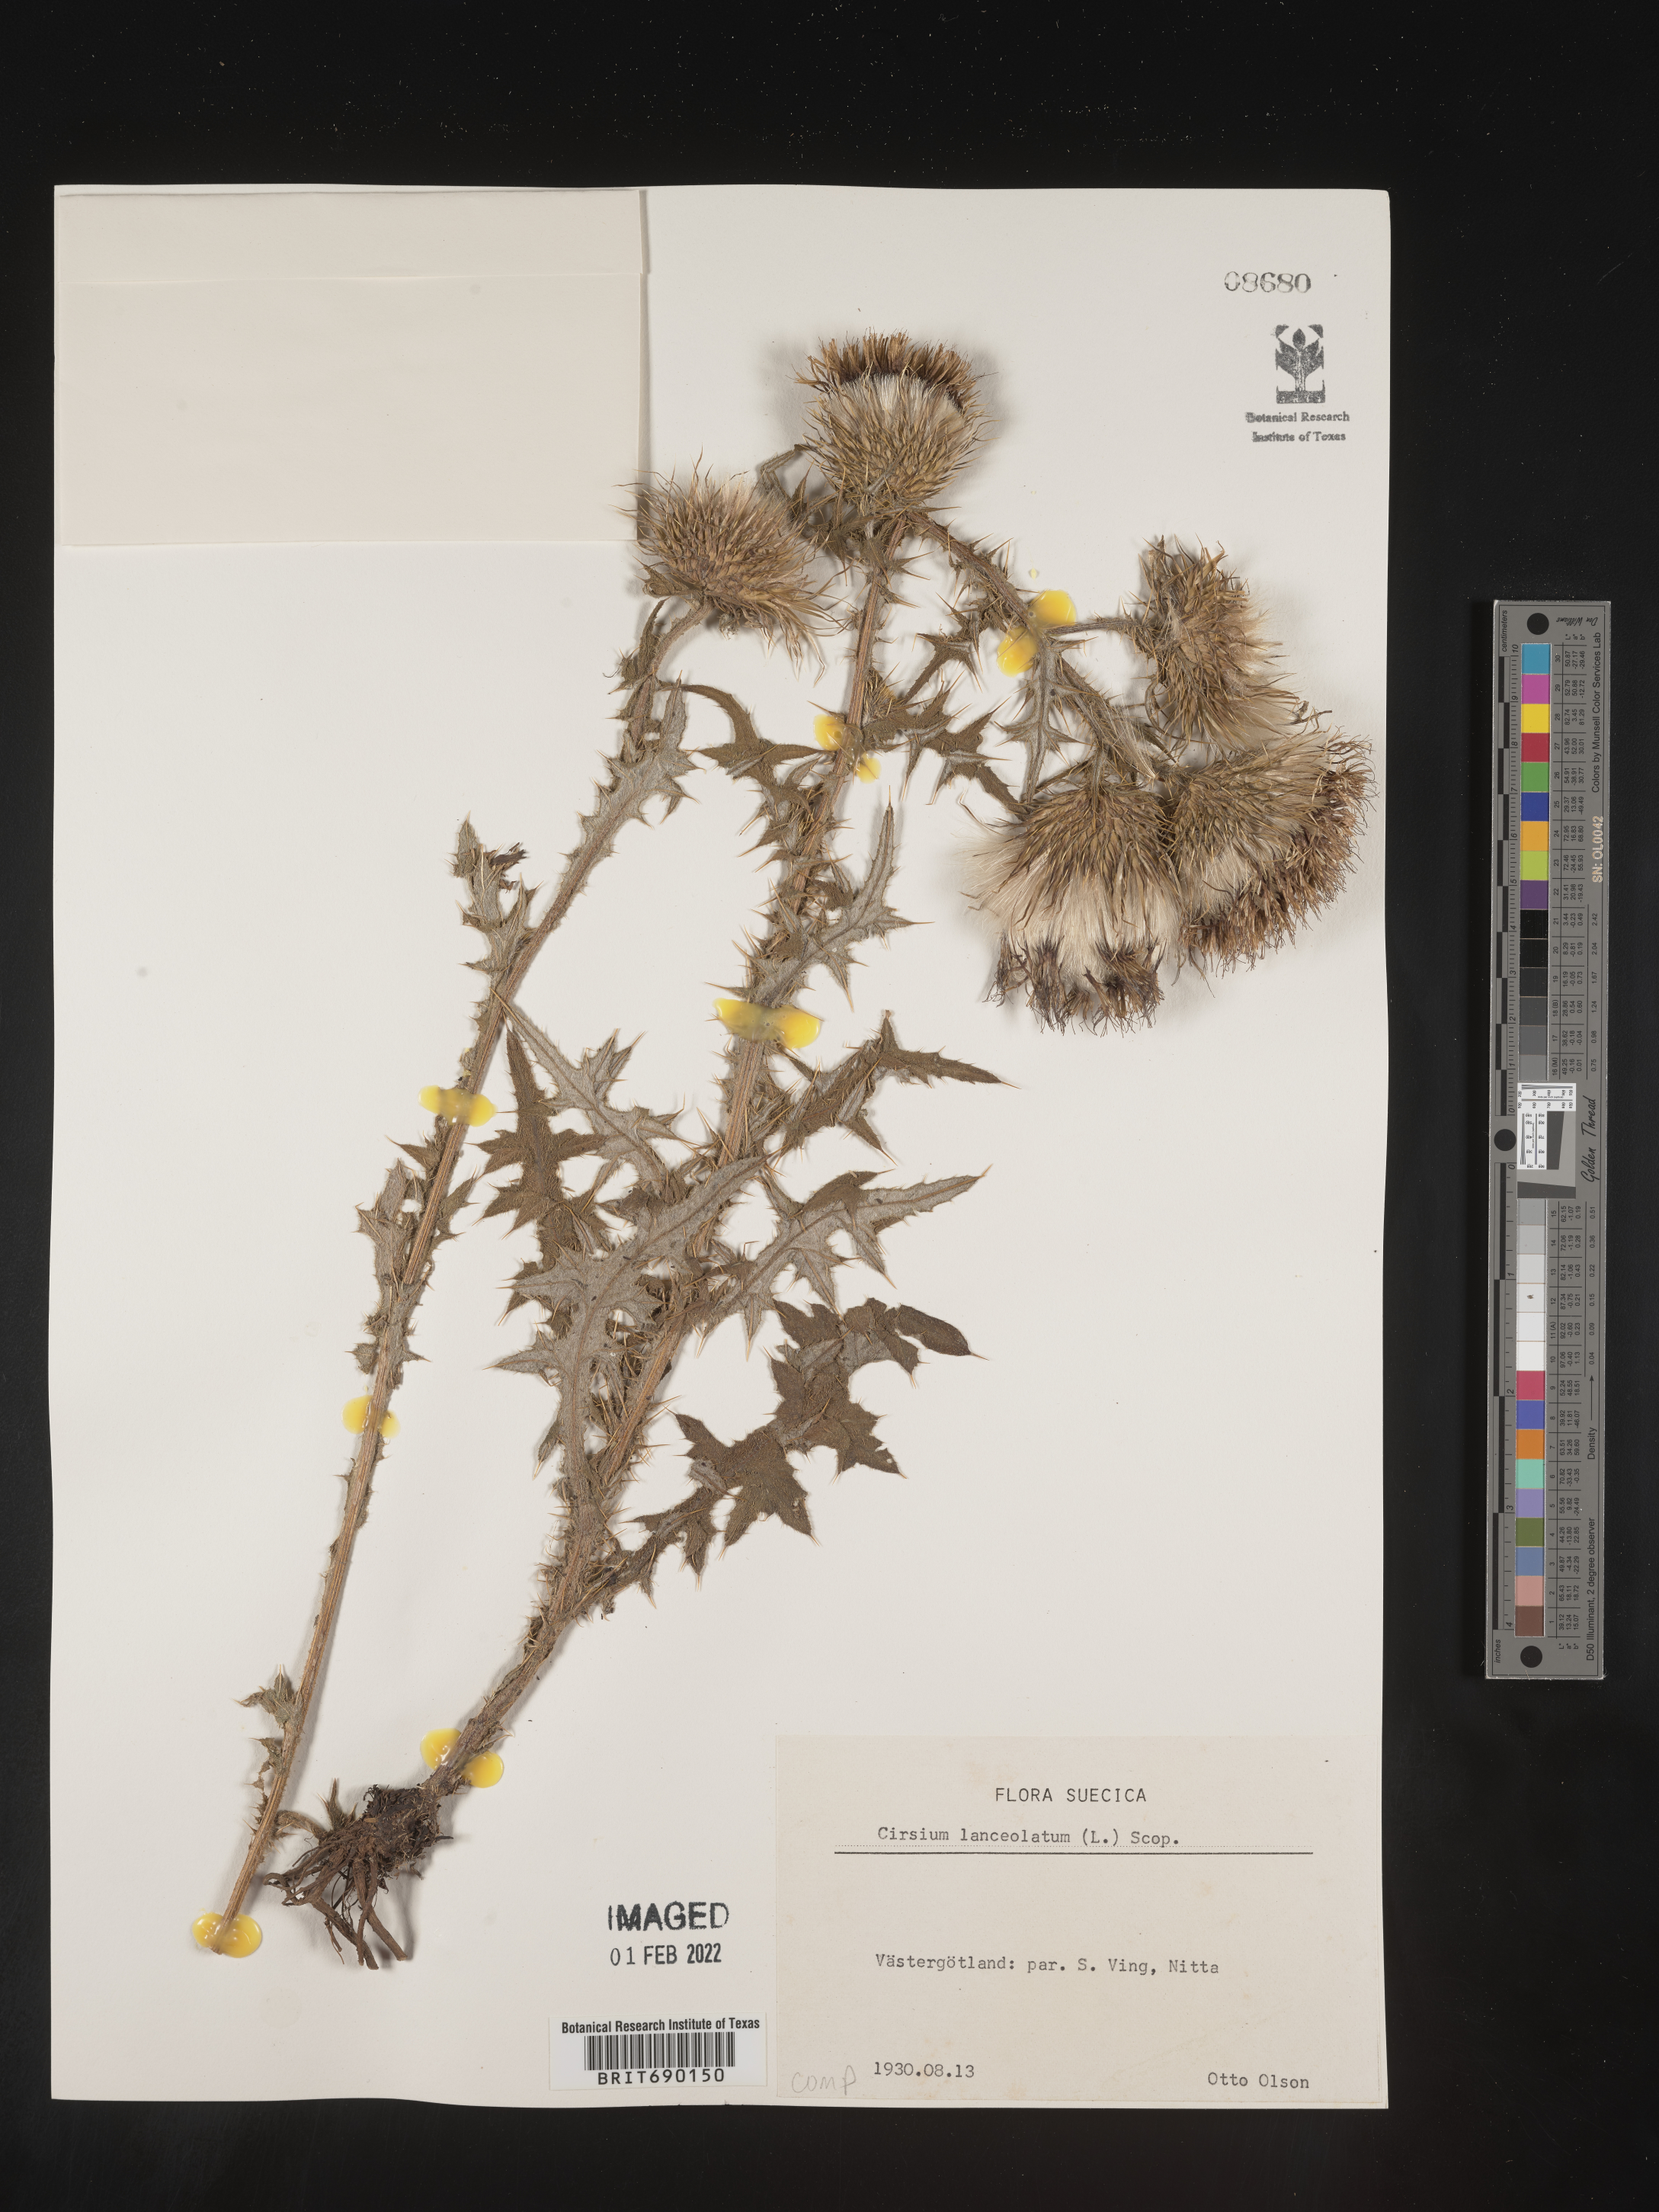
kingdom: Plantae
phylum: Tracheophyta
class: Magnoliopsida
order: Asterales
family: Asteraceae
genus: Cirsium
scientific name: Cirsium
